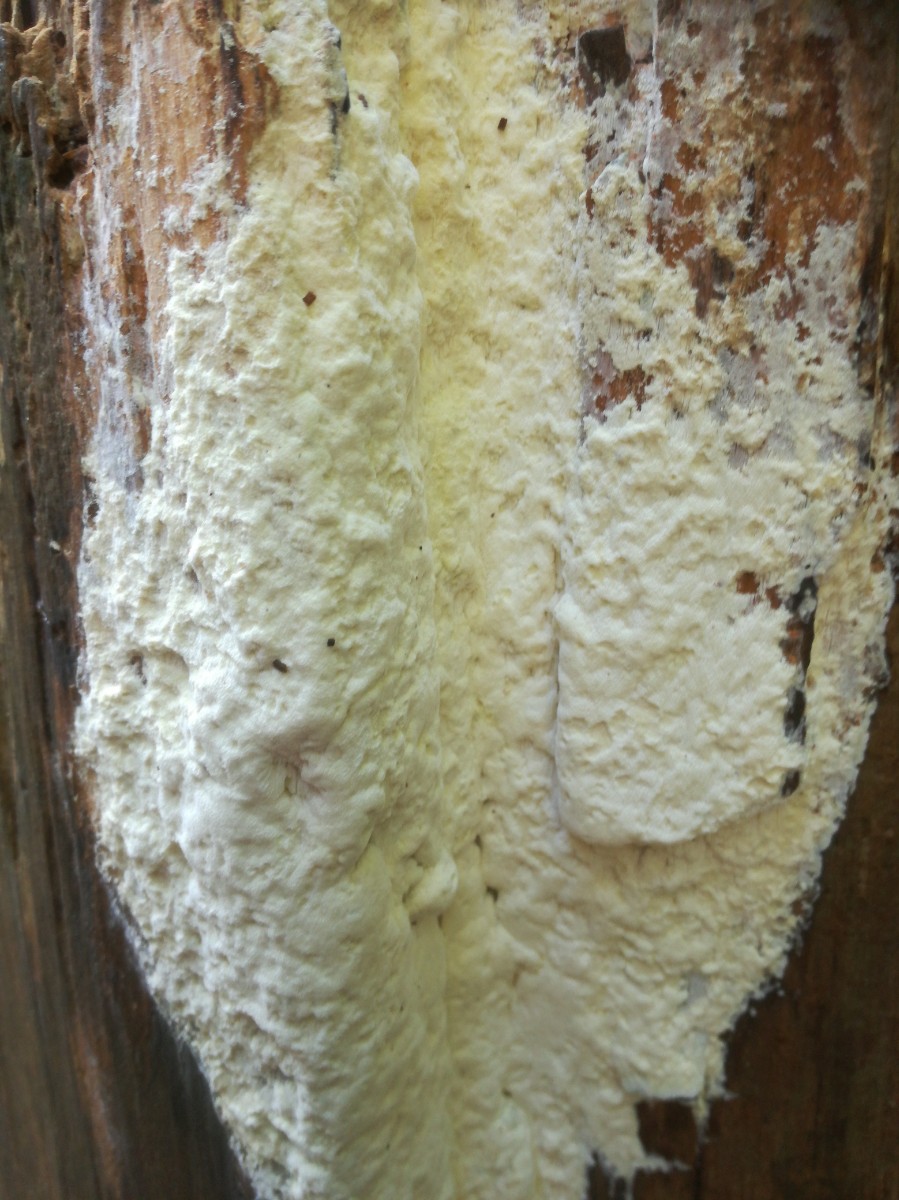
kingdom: Fungi
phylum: Basidiomycota
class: Agaricomycetes
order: Polyporales
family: Fomitopsidaceae
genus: Daedalea
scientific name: Daedalea xantha
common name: gul sejporesvamp
